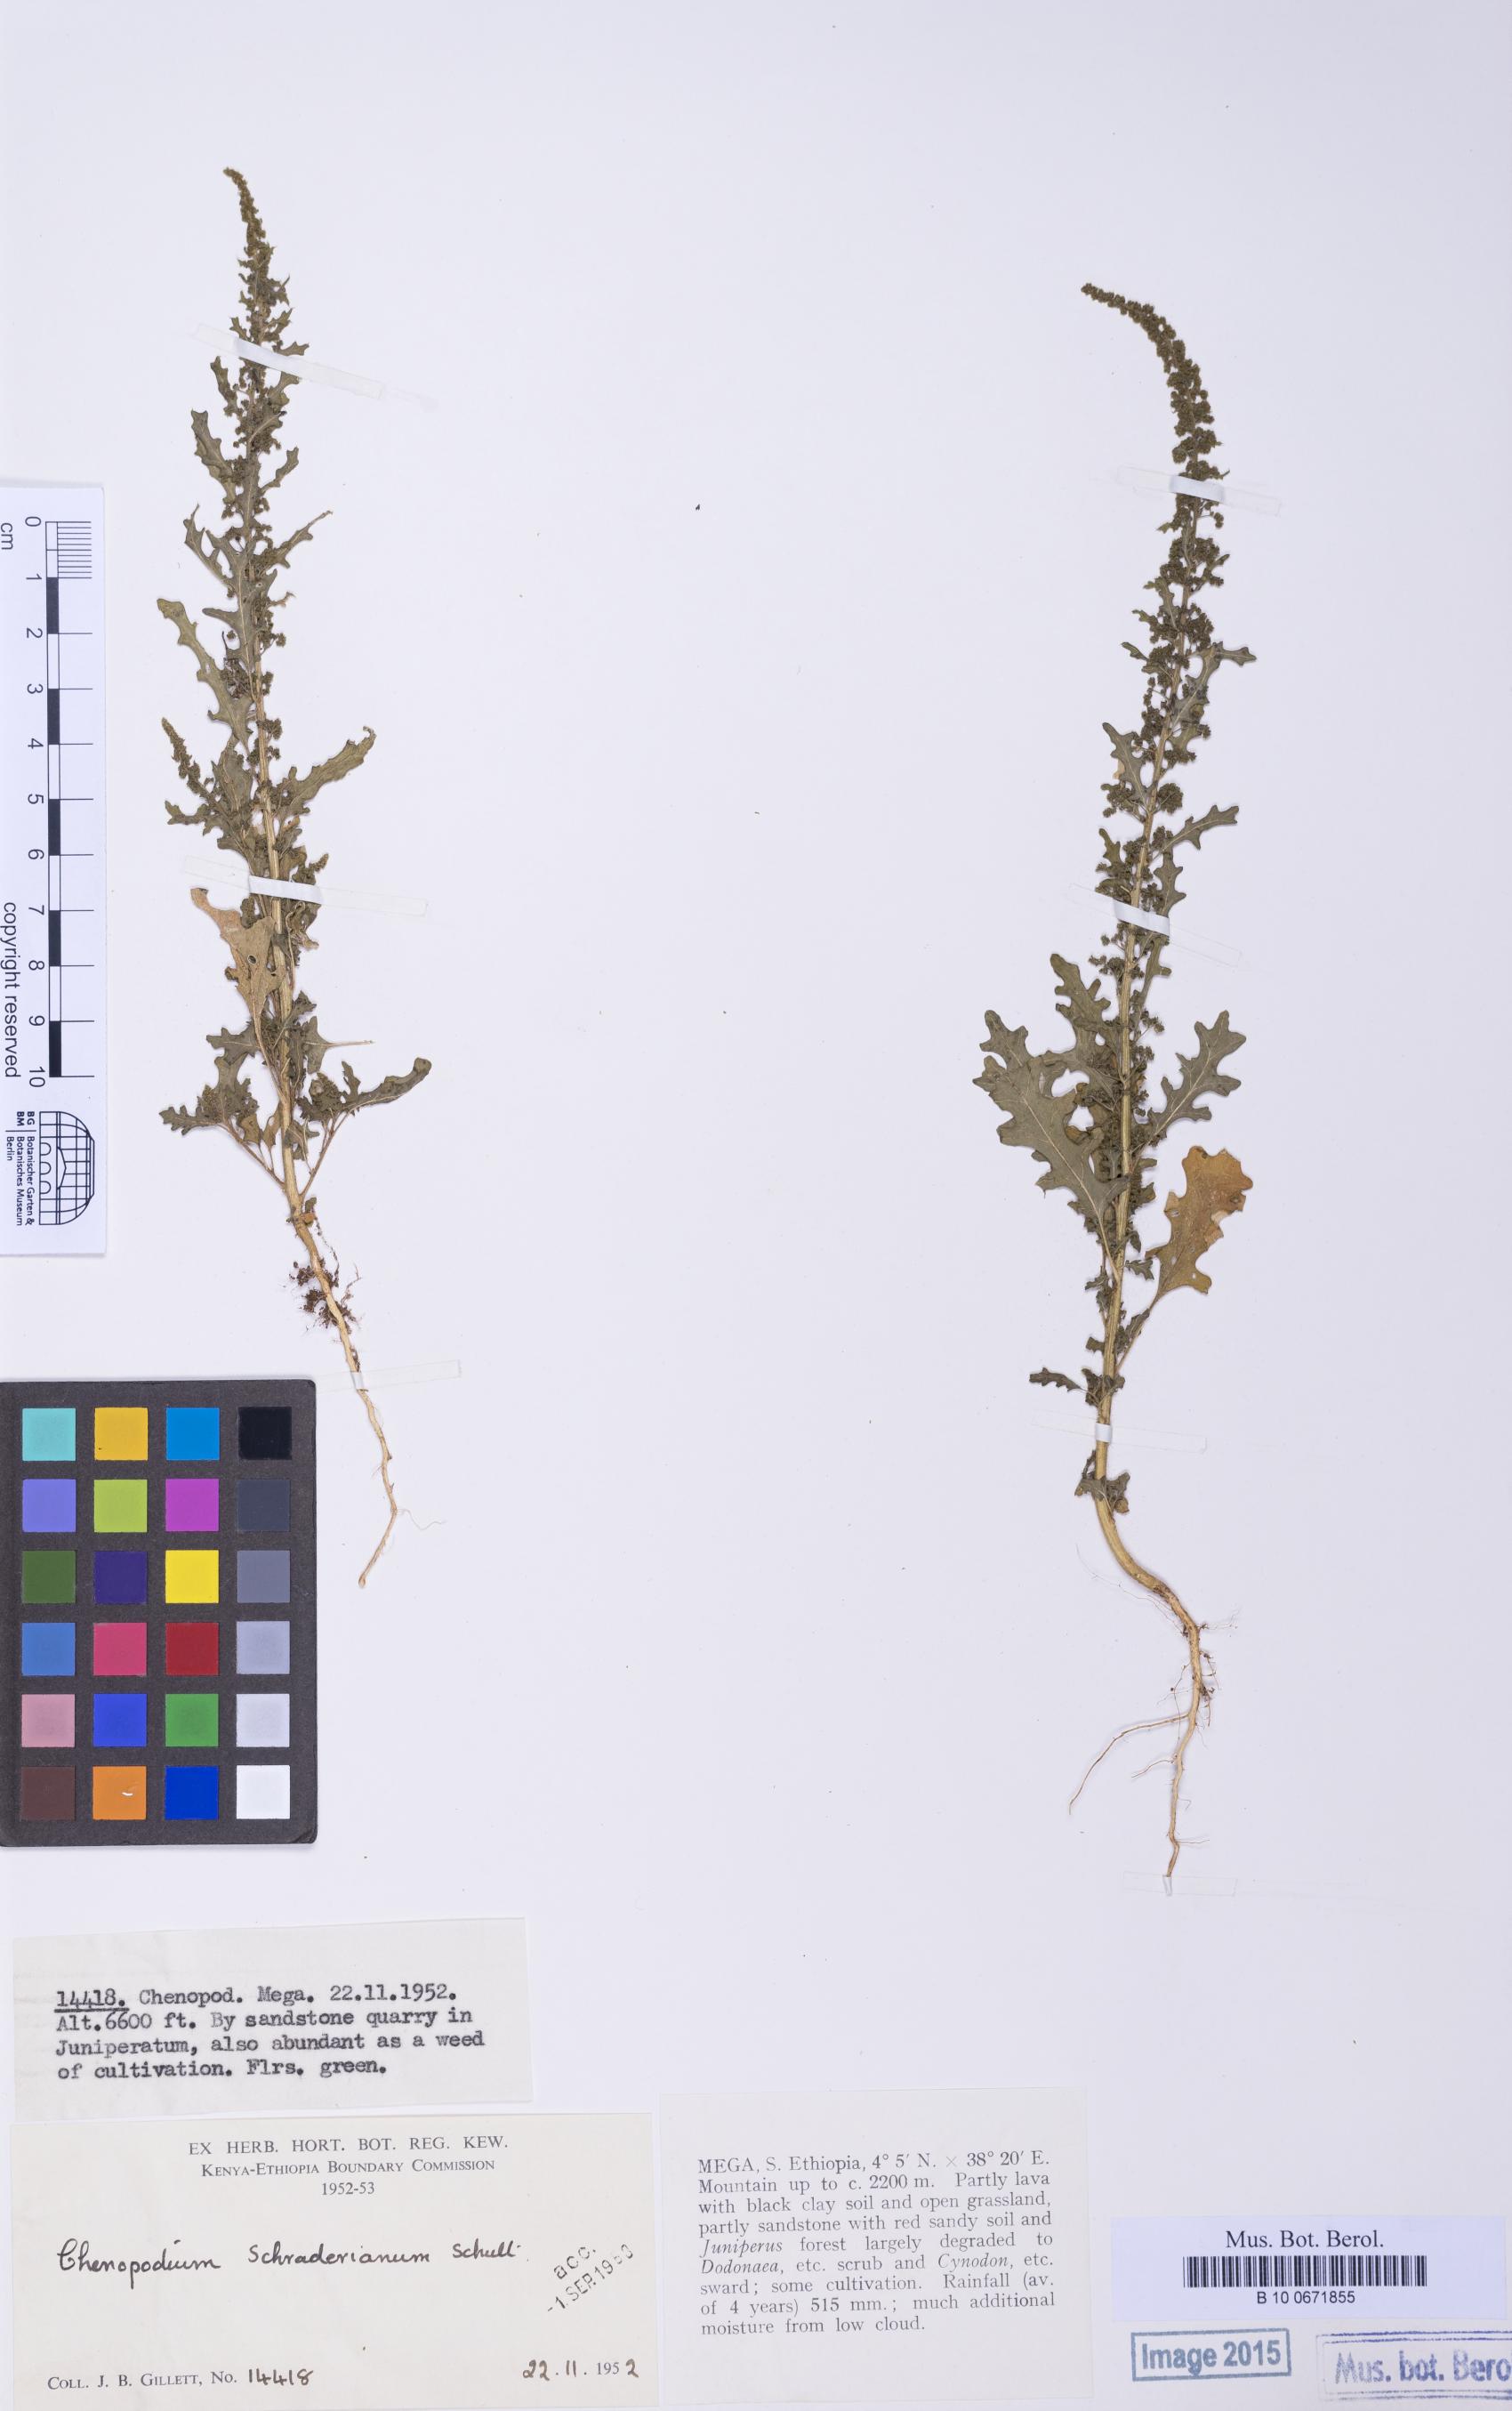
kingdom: Plantae
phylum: Tracheophyta
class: Magnoliopsida
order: Caryophyllales
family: Amaranthaceae
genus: Dysphania
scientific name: Dysphania schraderiana
